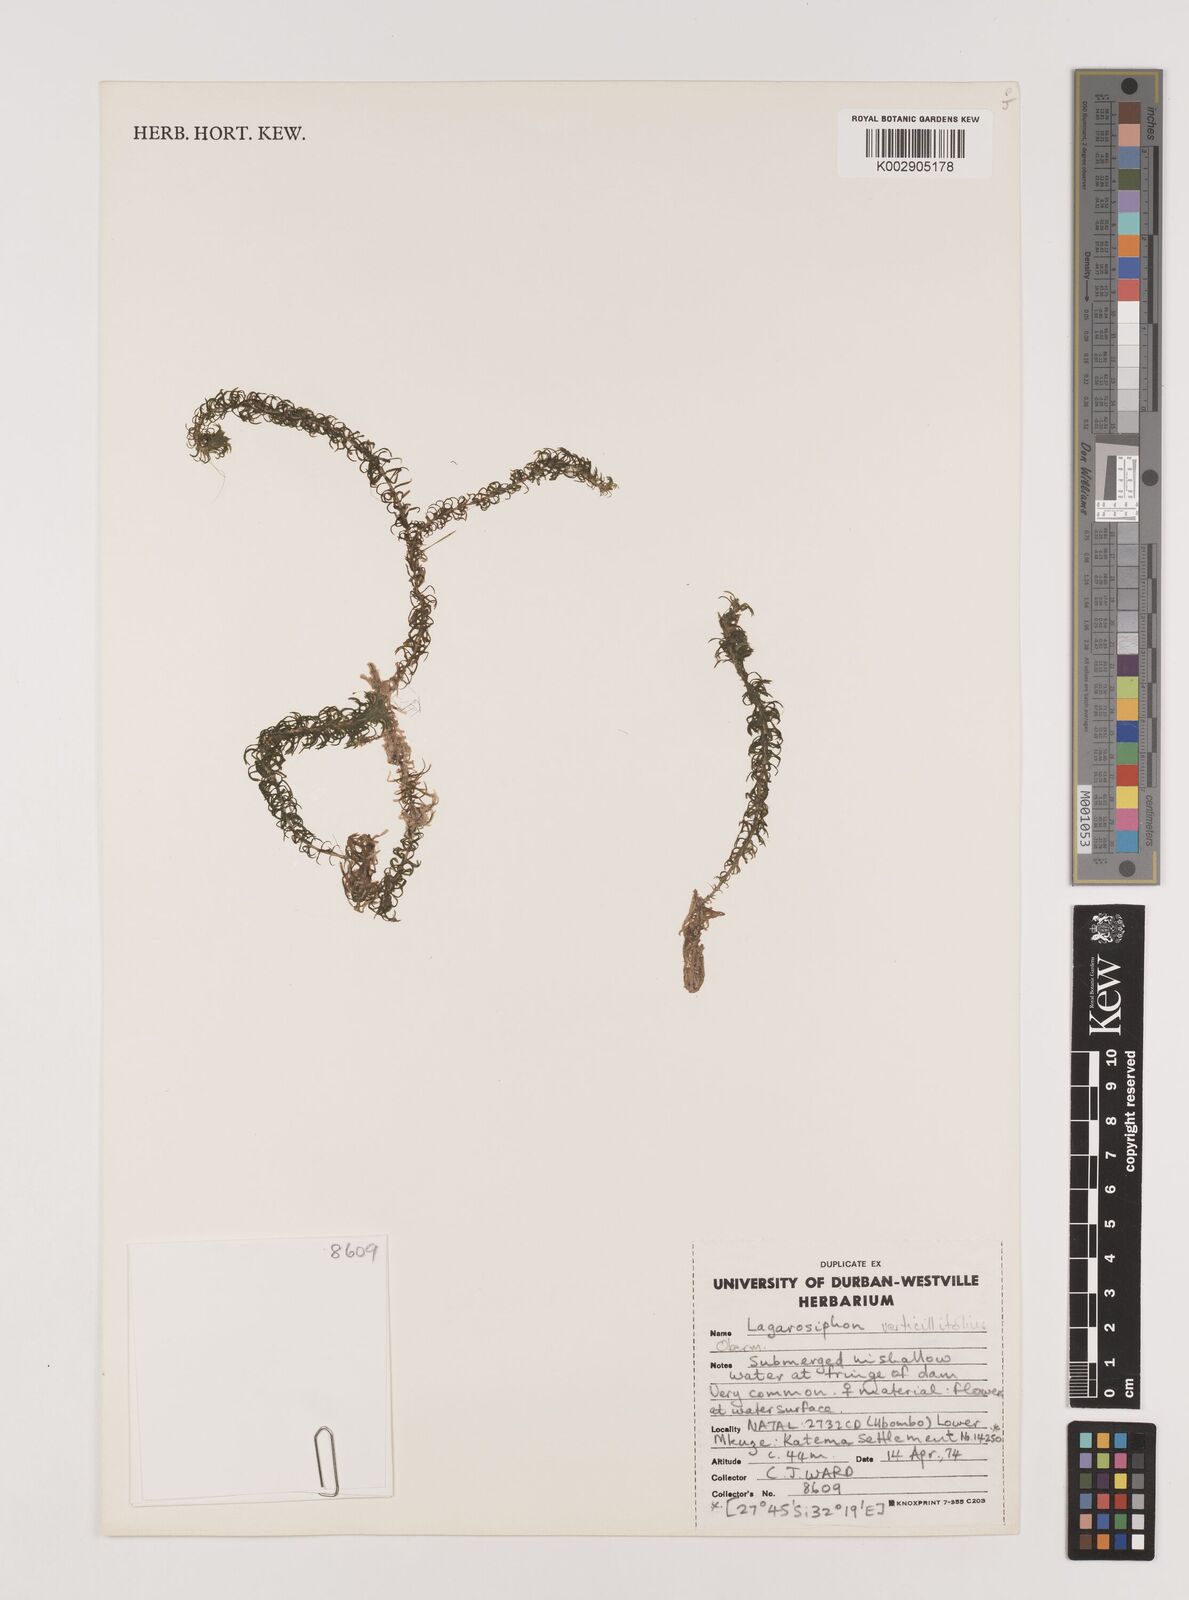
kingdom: Plantae
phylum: Tracheophyta
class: Liliopsida
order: Alismatales
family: Hydrocharitaceae
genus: Lagarosiphon
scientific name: Lagarosiphon verticillifolius
